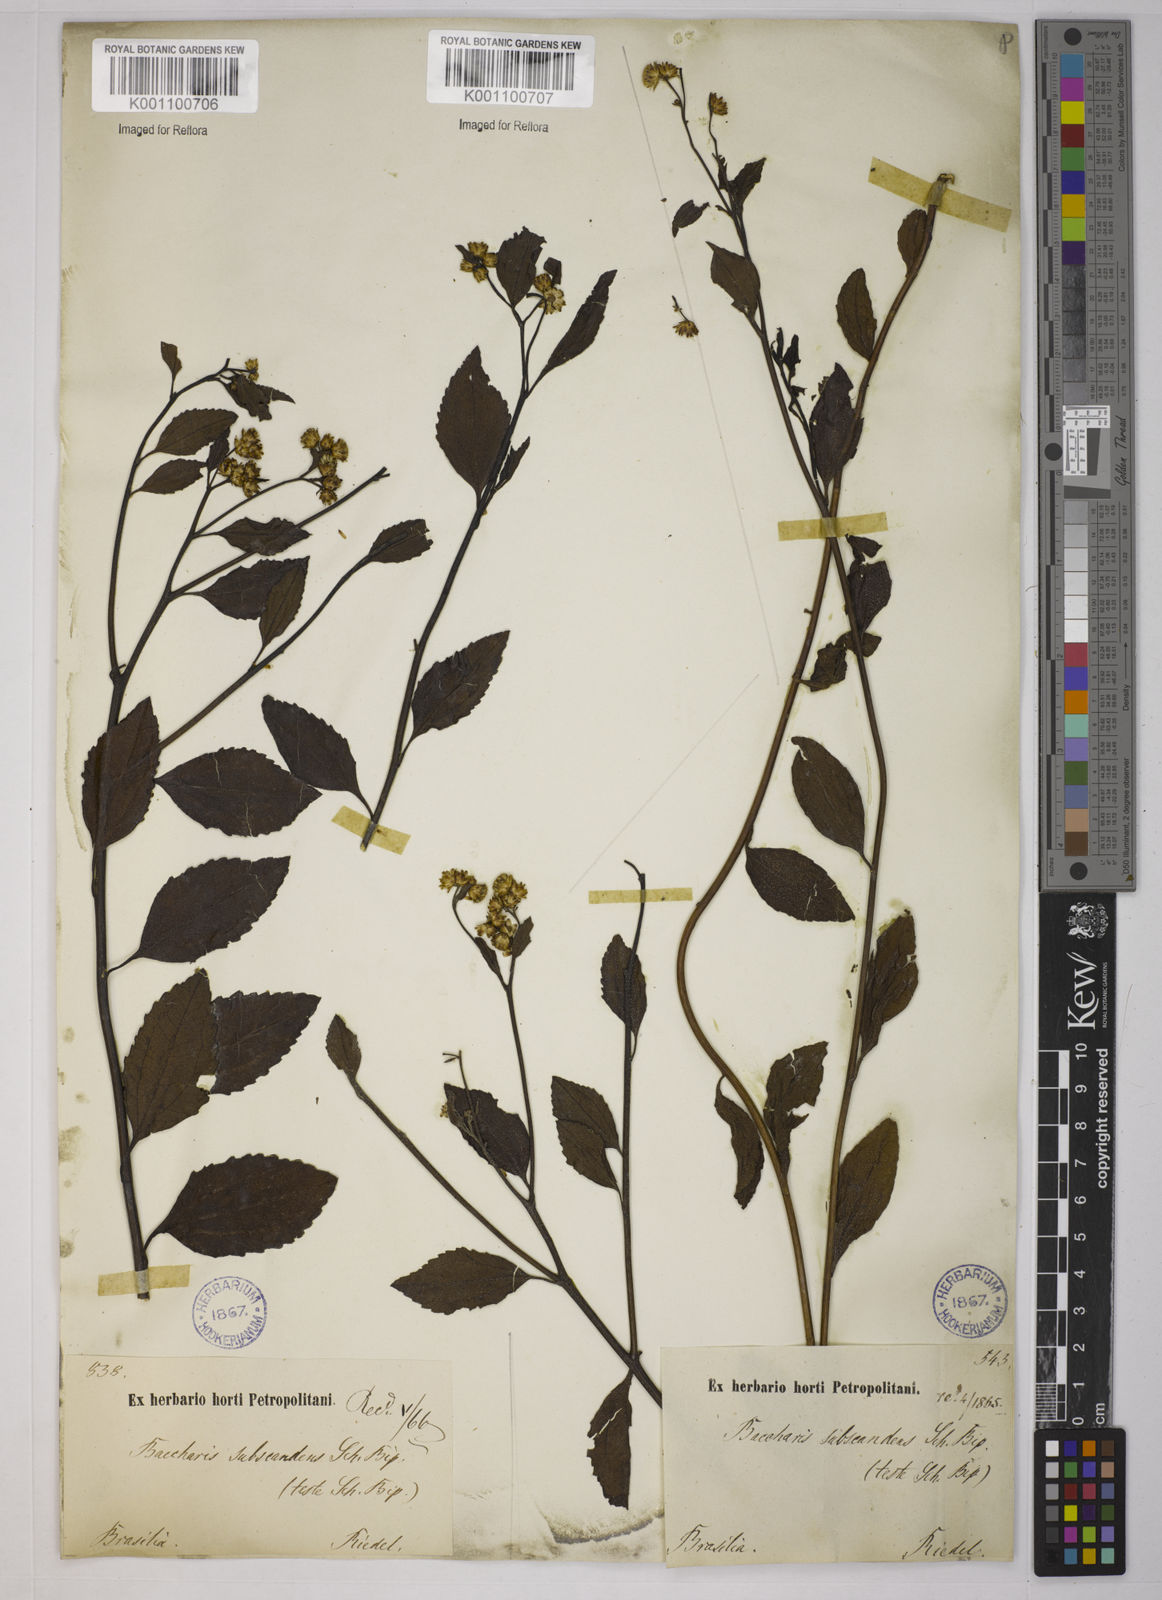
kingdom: Plantae
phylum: Tracheophyta
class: Magnoliopsida
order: Asterales
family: Asteraceae
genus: Baccharis
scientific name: Baccharis conyzoides
